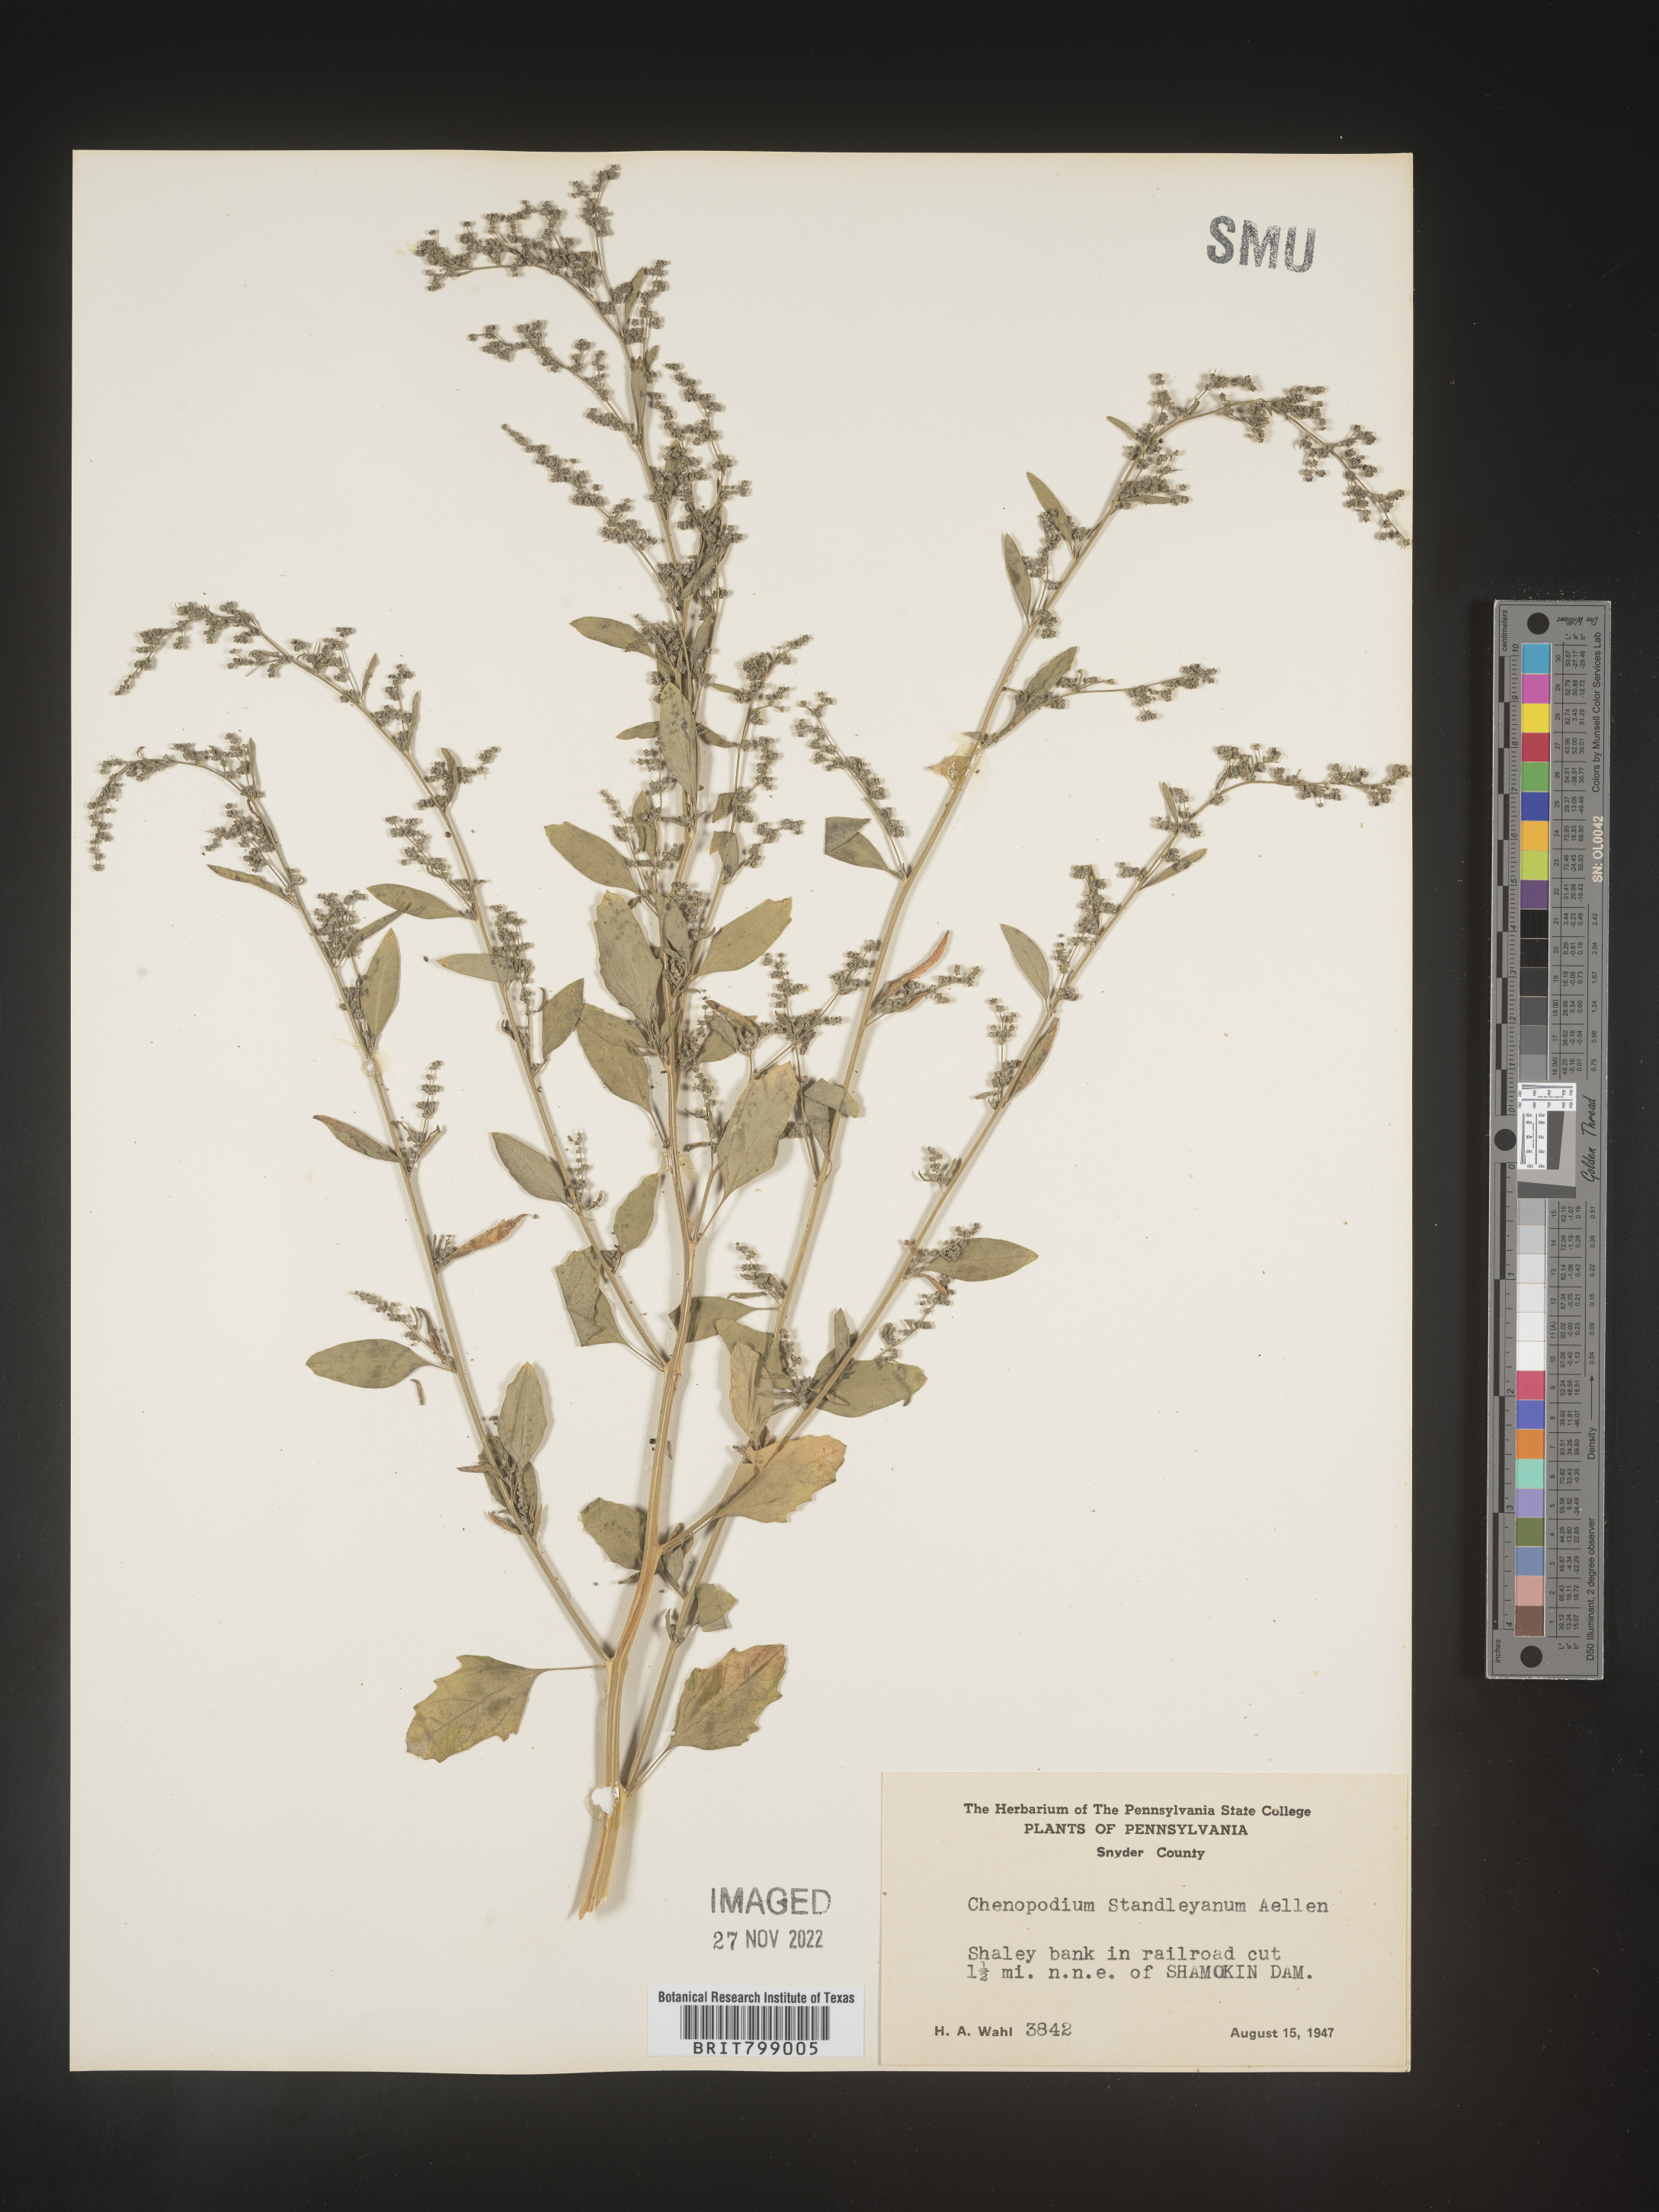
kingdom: Plantae
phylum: Tracheophyta
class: Magnoliopsida
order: Caryophyllales
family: Amaranthaceae
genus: Chenopodiastrum
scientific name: Chenopodiastrum standleyanum
